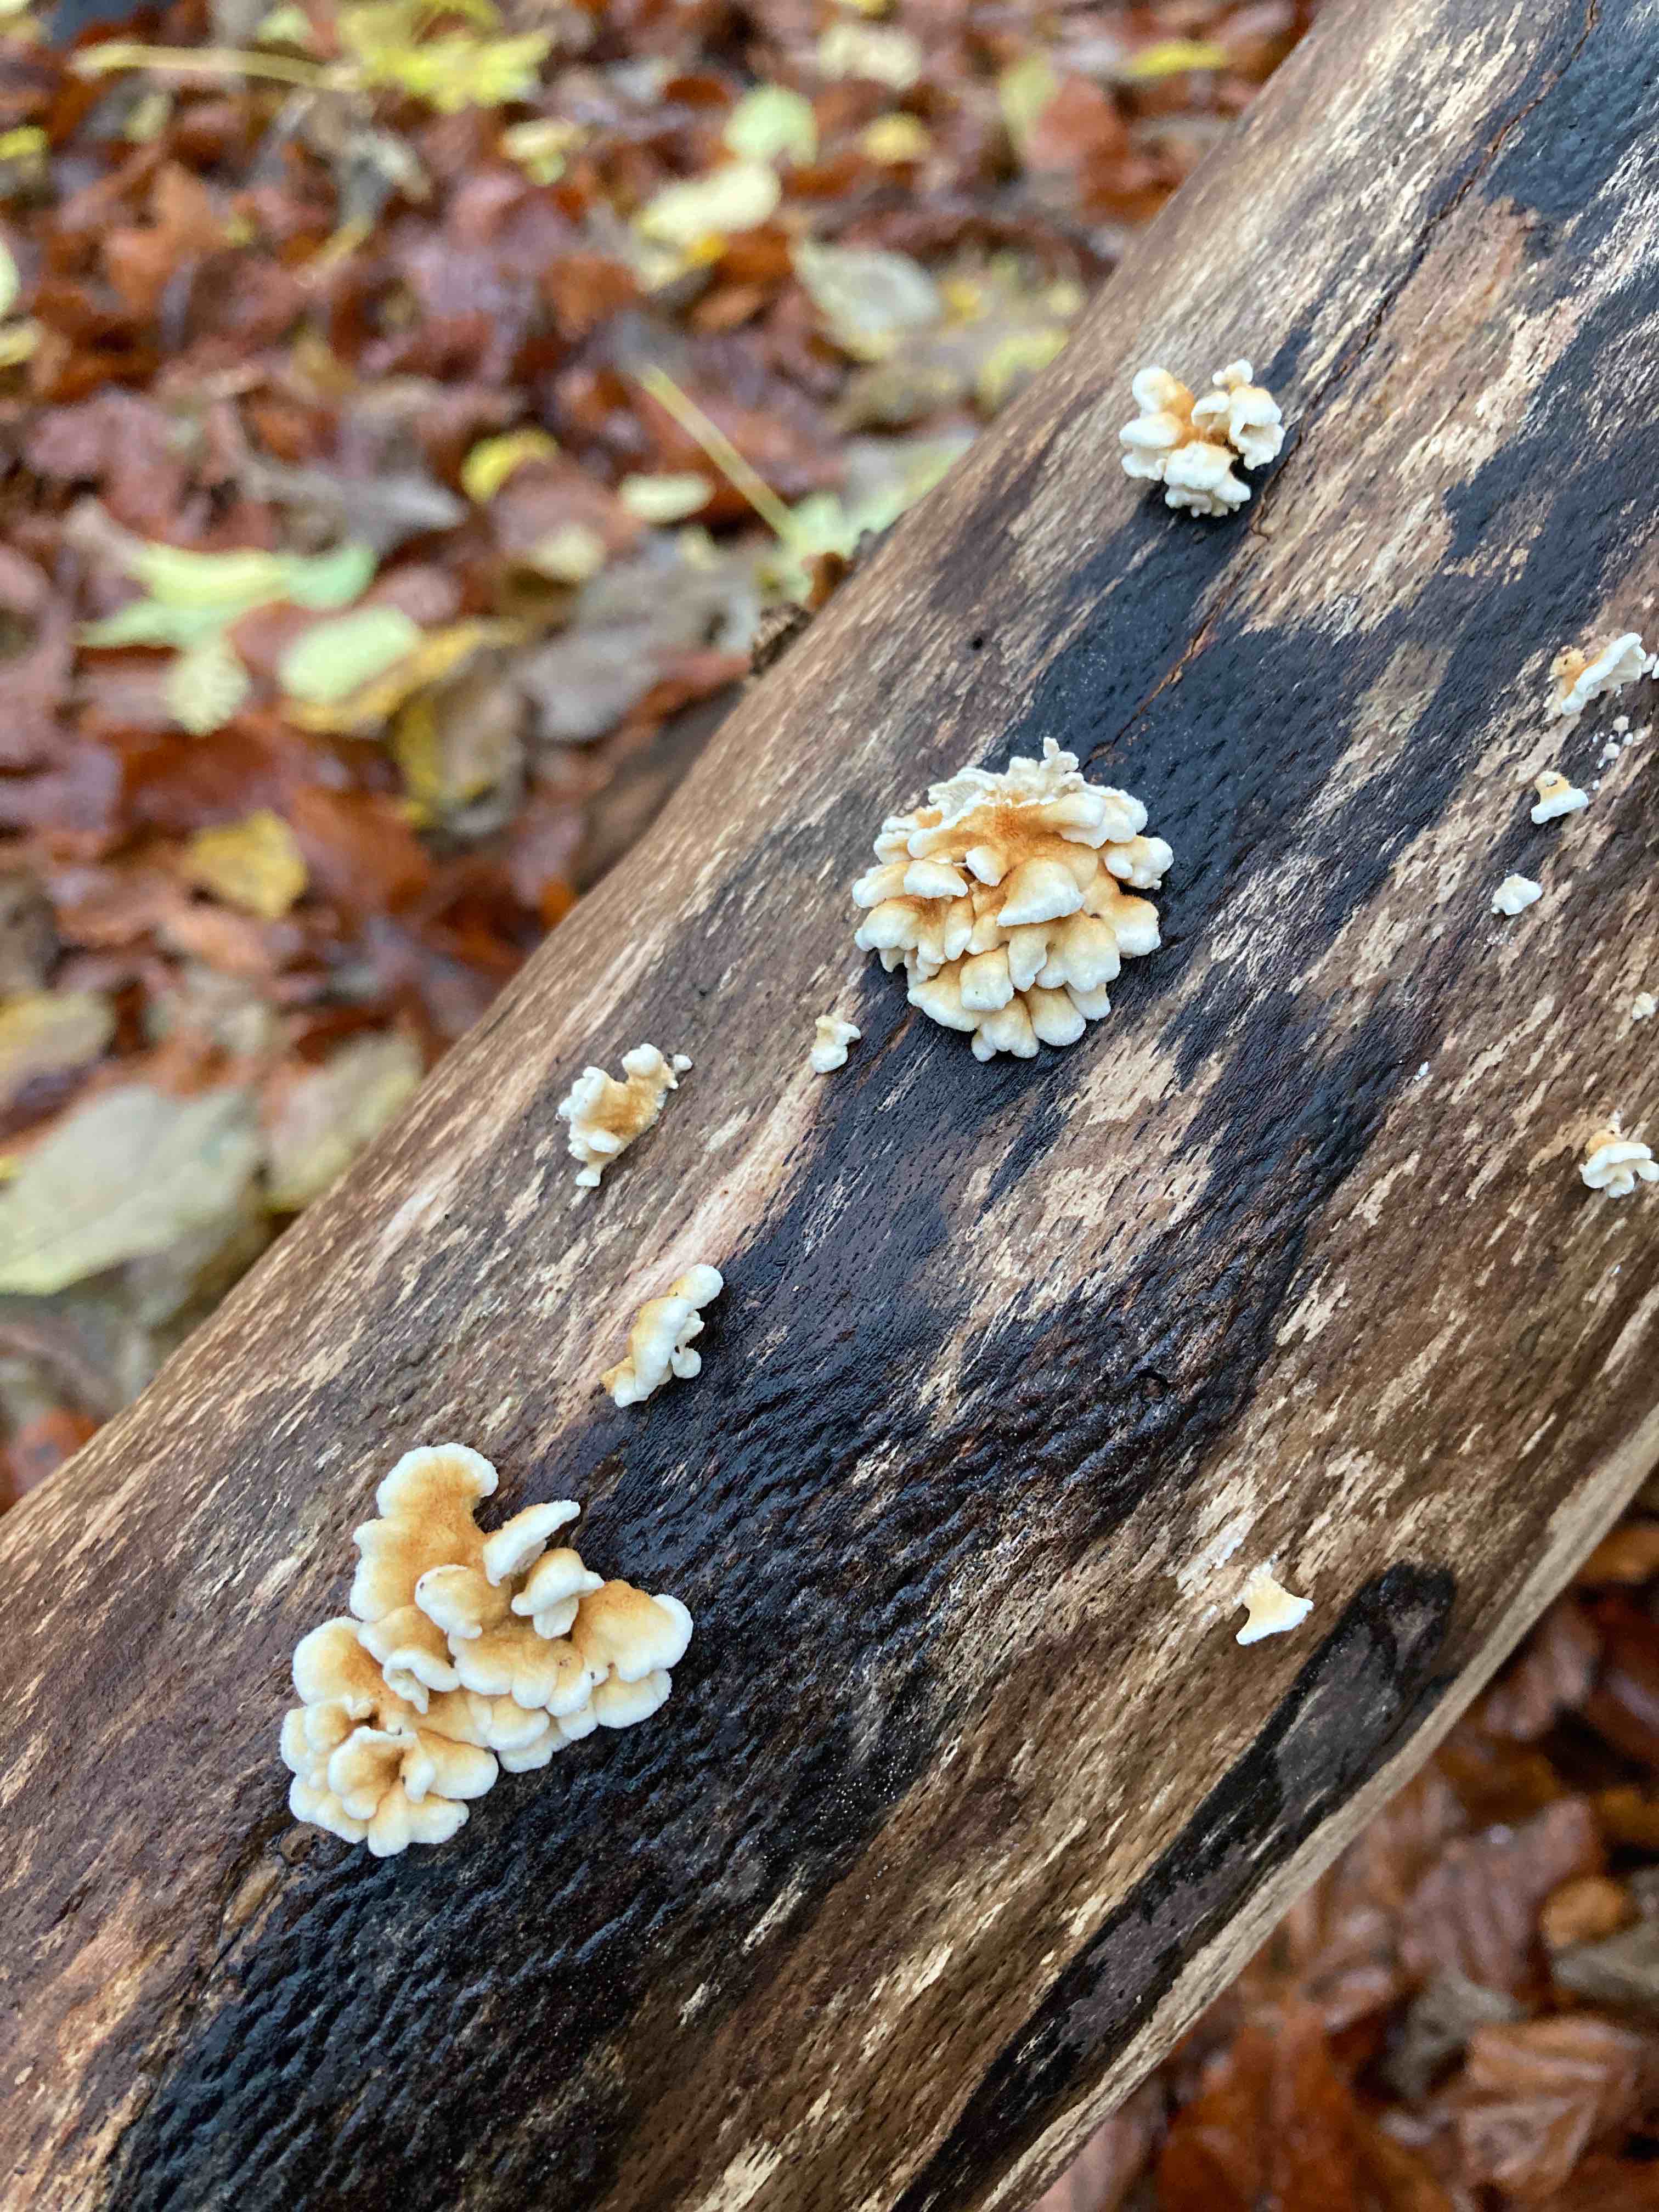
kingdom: Fungi
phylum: Basidiomycota
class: Agaricomycetes
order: Amylocorticiales
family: Amylocorticiaceae
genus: Plicaturopsis
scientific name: Plicaturopsis crispa
